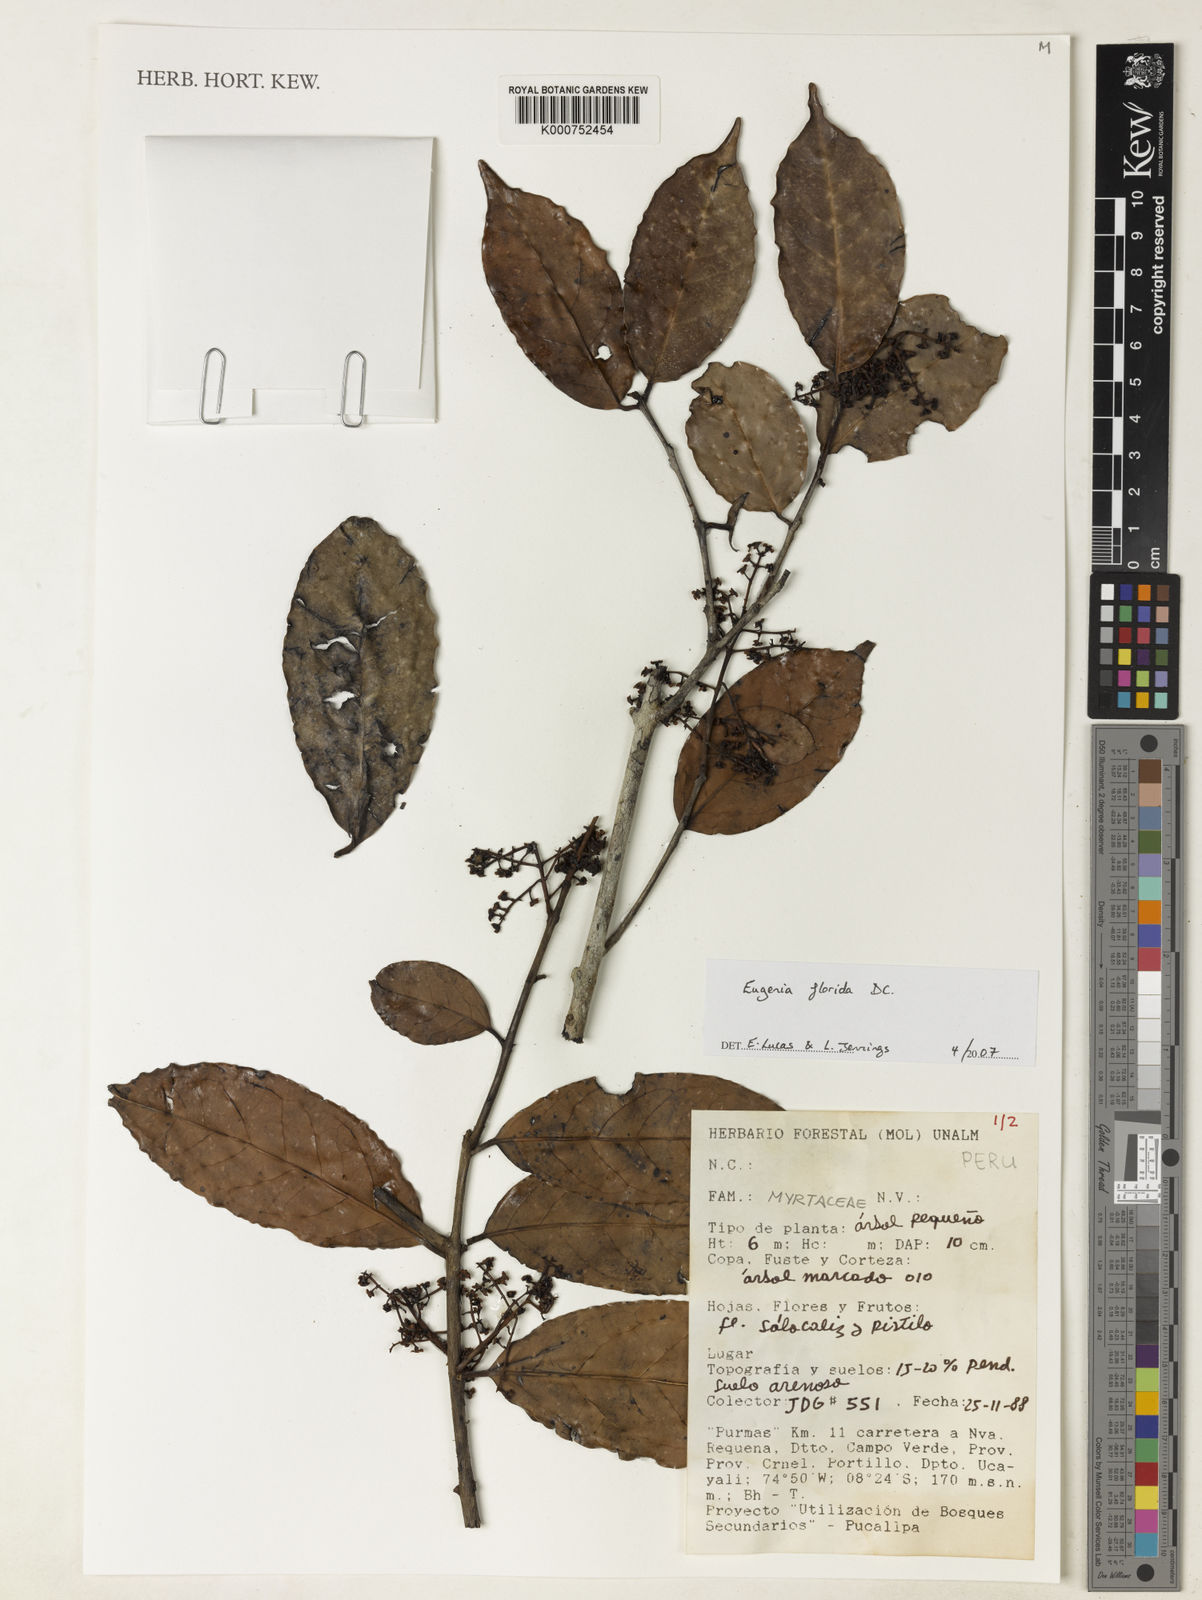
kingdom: Plantae
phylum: Tracheophyta
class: Magnoliopsida
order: Myrtales
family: Myrtaceae
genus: Eugenia
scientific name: Eugenia florida
